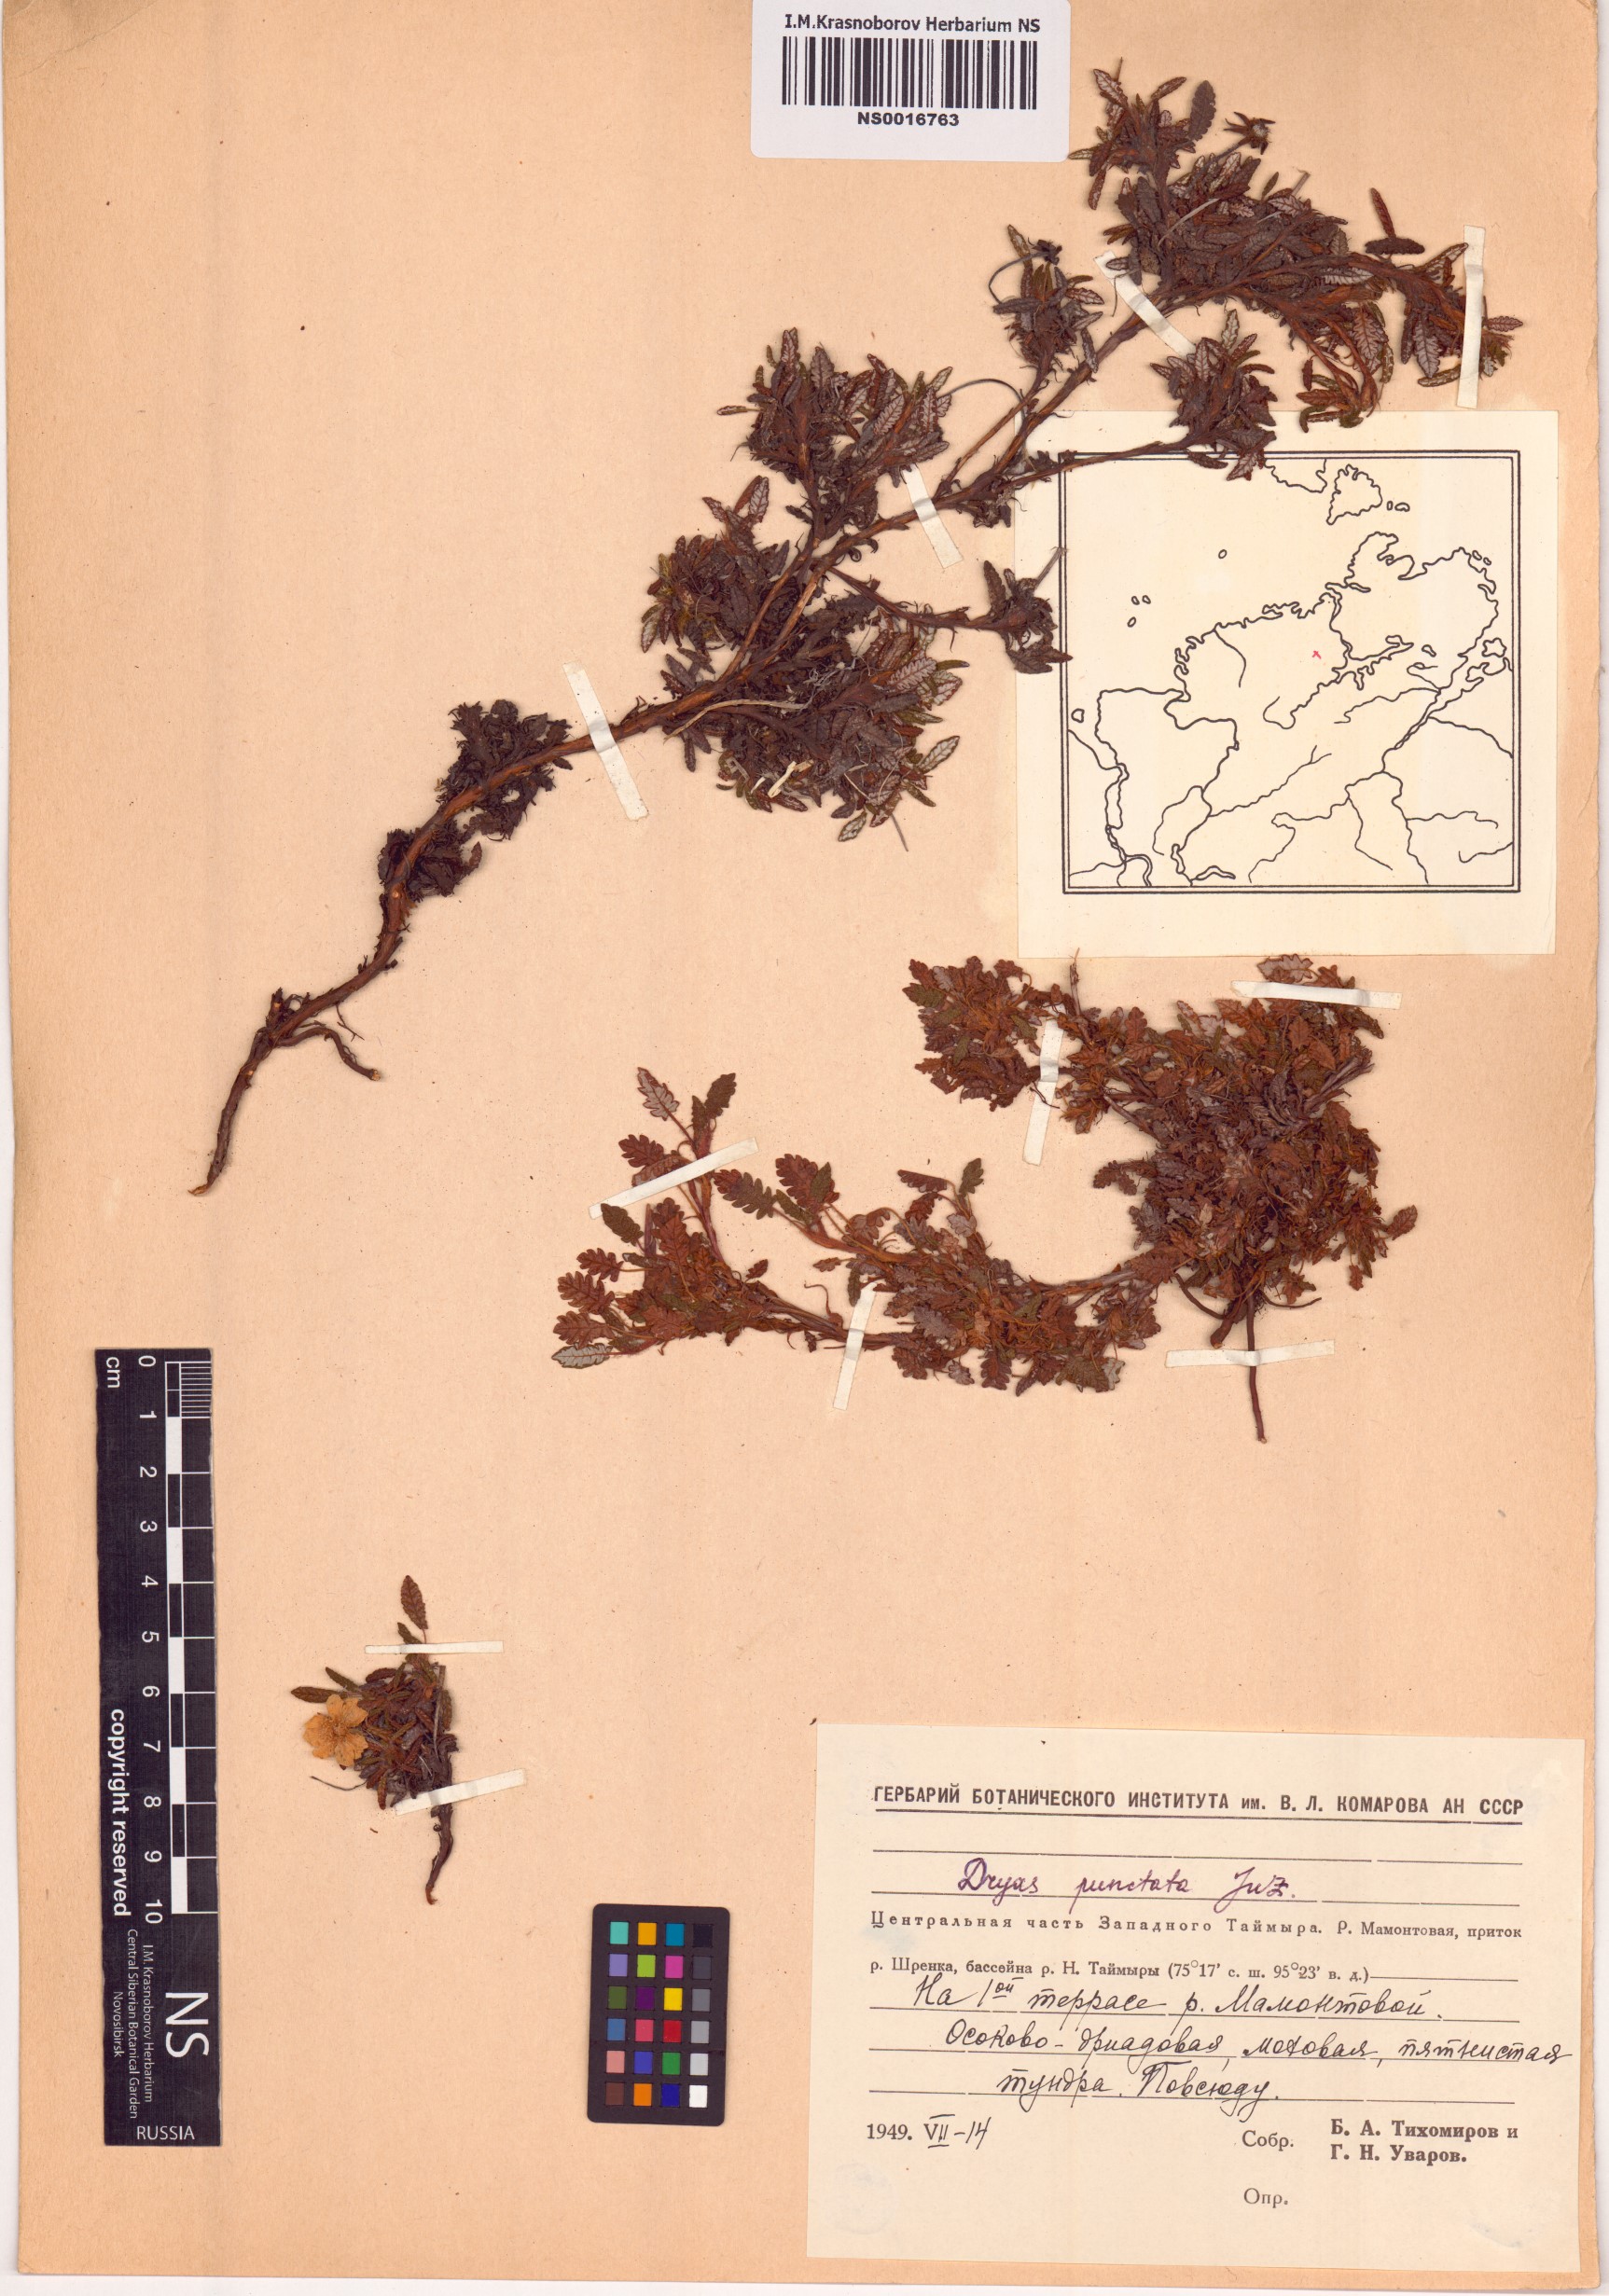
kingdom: Plantae
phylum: Tracheophyta
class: Magnoliopsida
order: Rosales
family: Rosaceae
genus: Dryas
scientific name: Dryas octopetala
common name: Eight-petal mountain-avens
